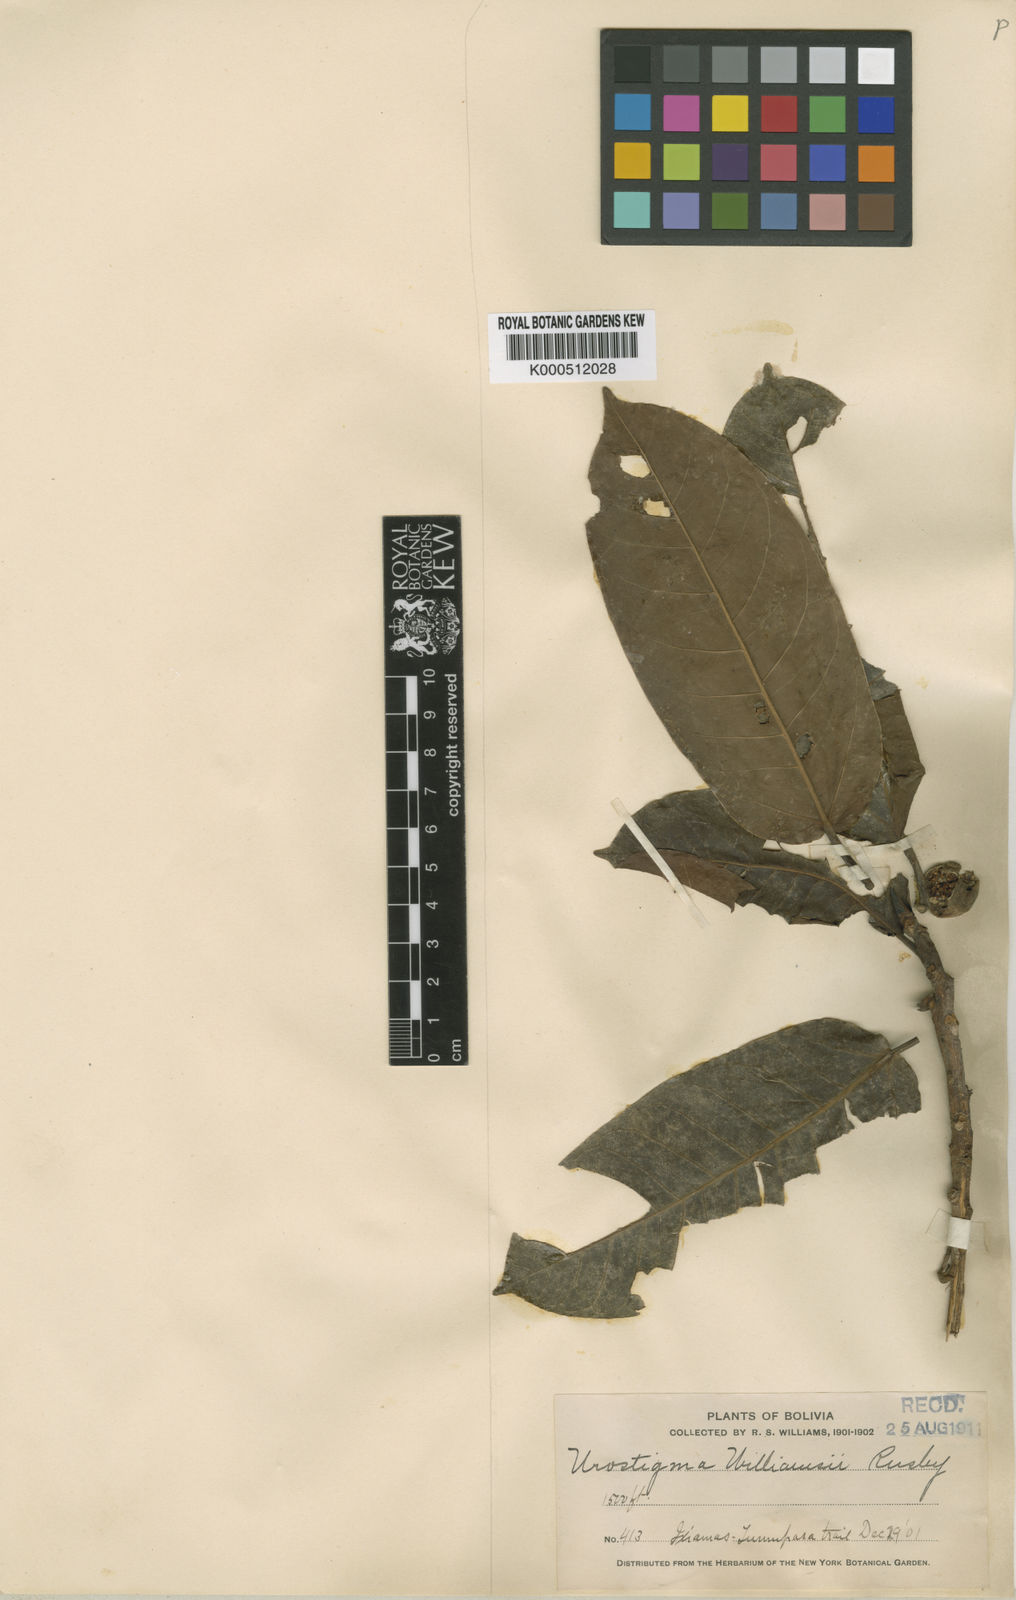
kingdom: Plantae
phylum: Tracheophyta
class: Magnoliopsida
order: Rosales
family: Moraceae
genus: Ficus
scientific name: Ficus paraensis
